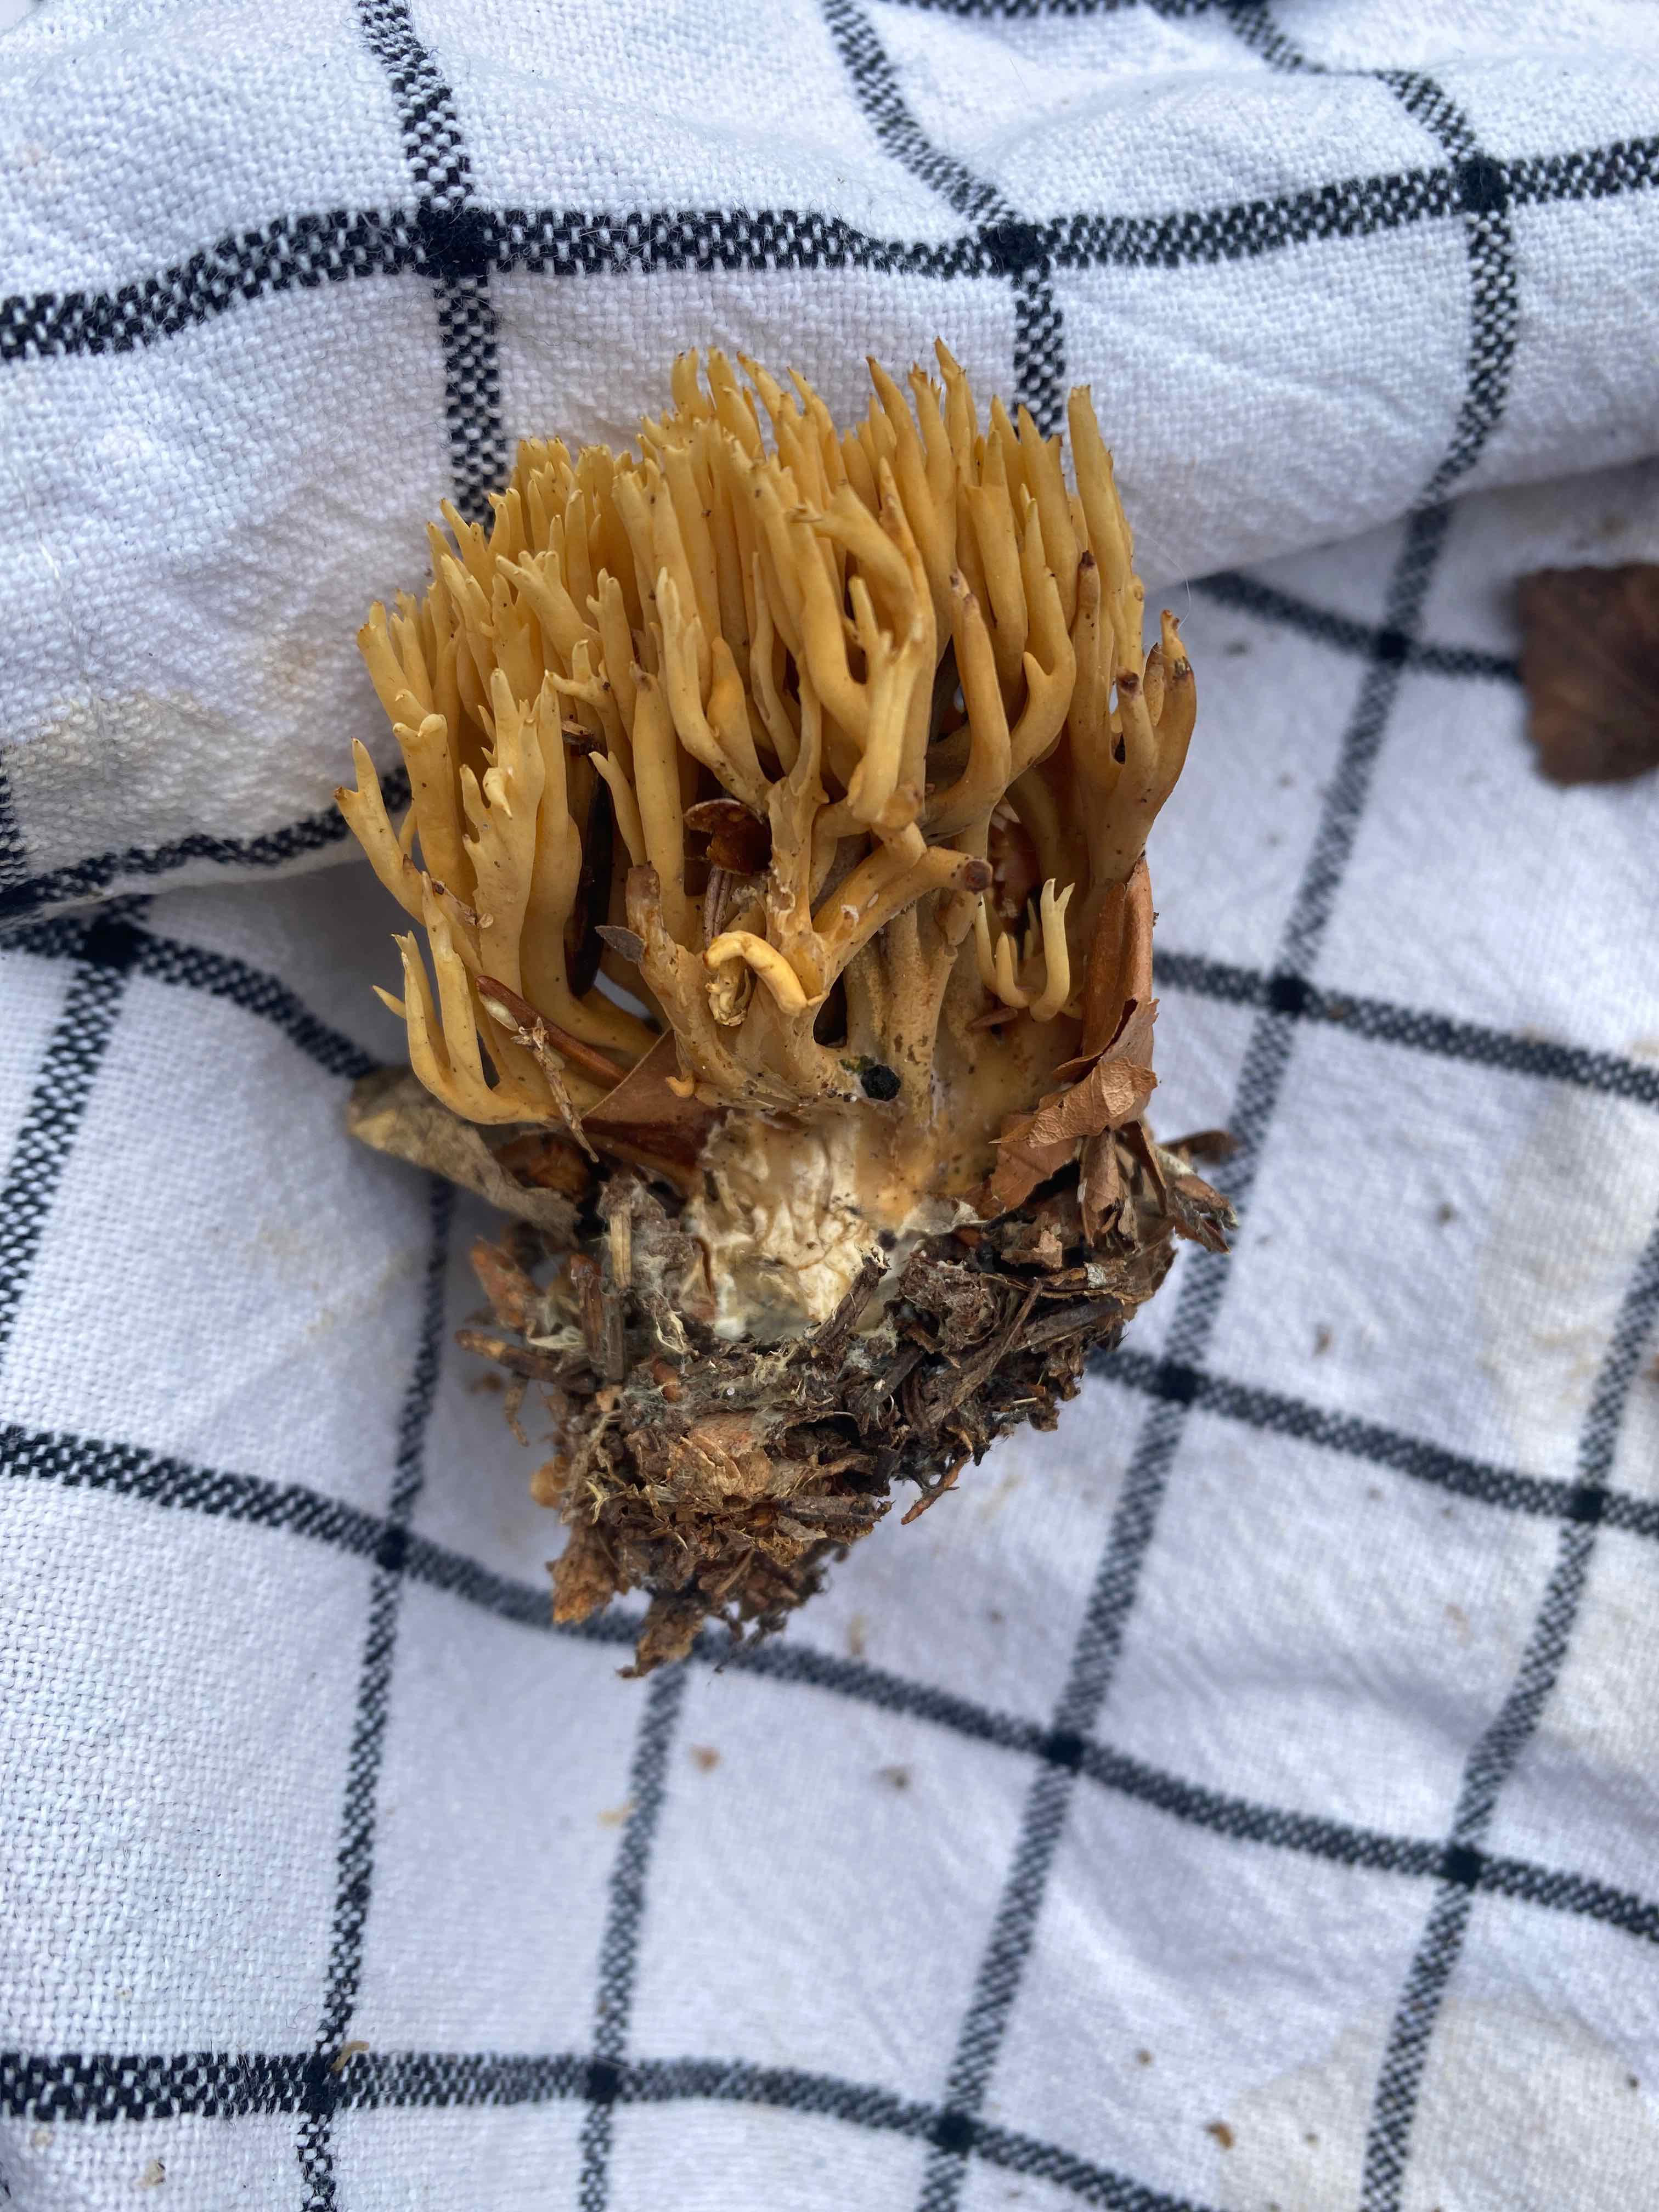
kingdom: Fungi
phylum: Basidiomycota
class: Agaricomycetes
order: Gomphales
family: Gomphaceae
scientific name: Gomphaceae
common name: køllekantarelfamilien
